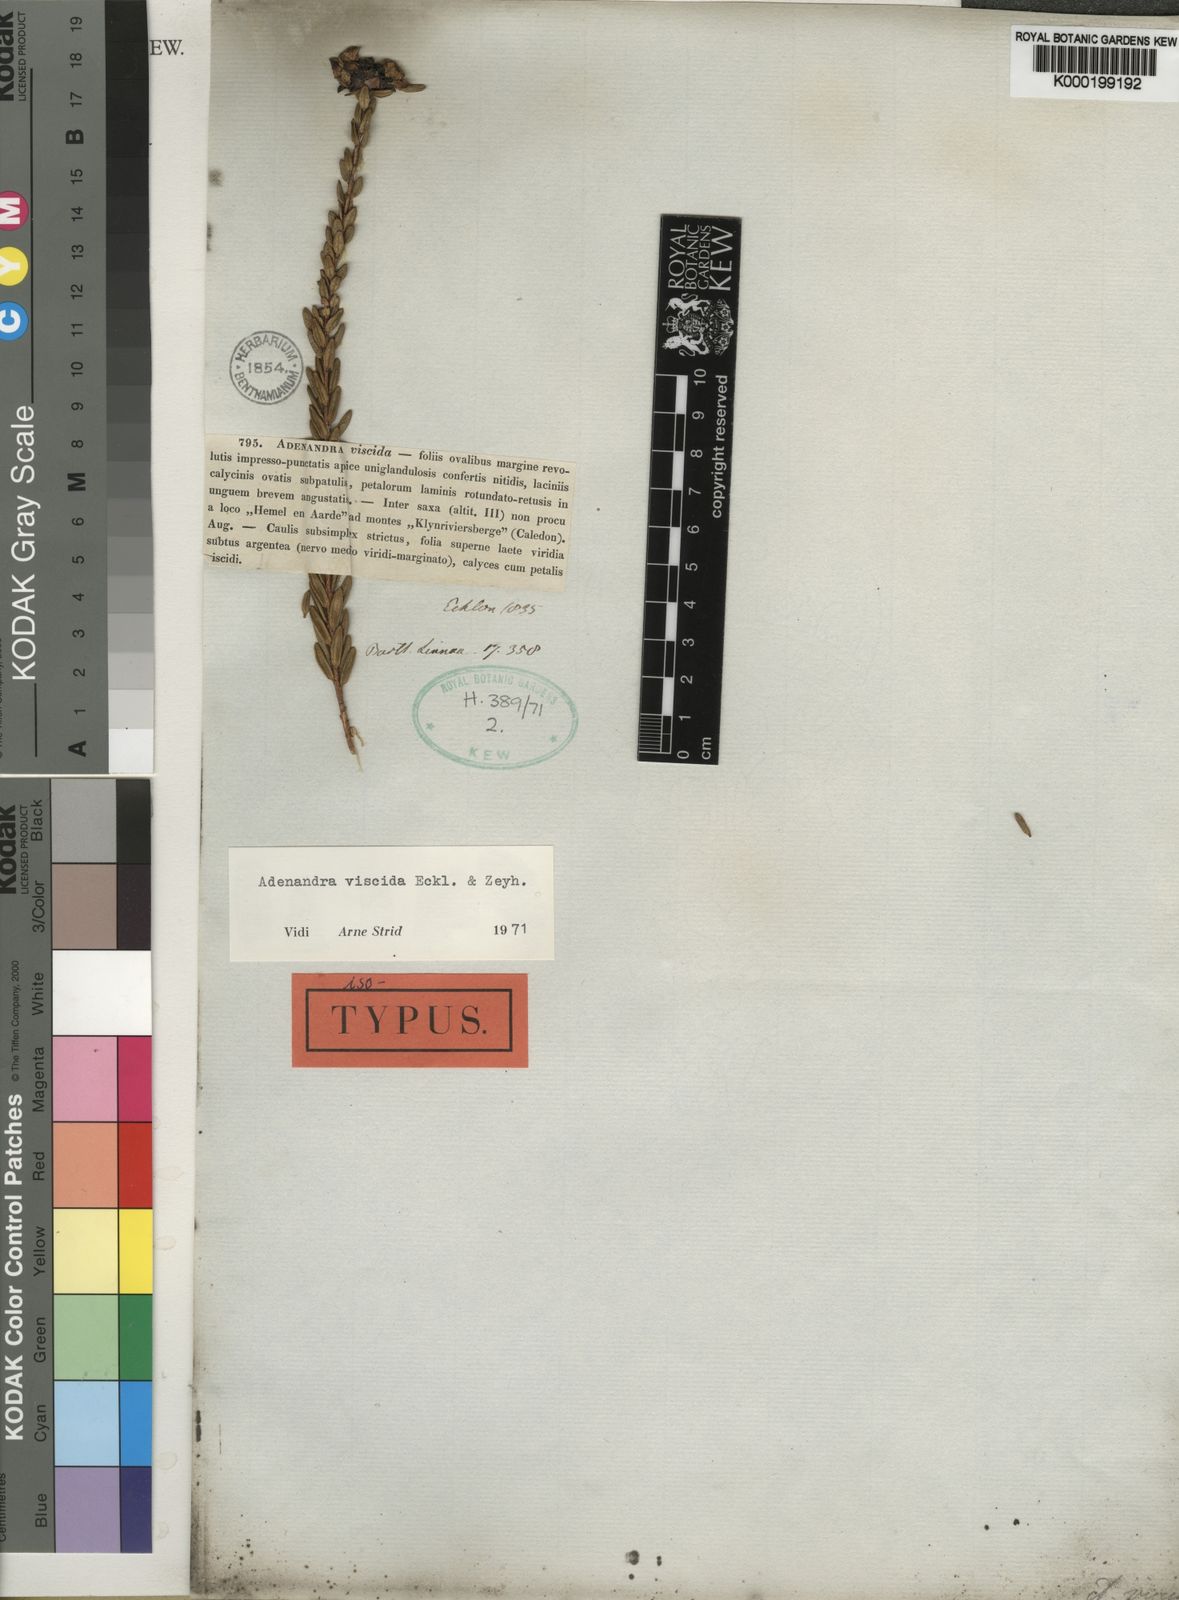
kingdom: Plantae
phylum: Tracheophyta
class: Magnoliopsida
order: Sapindales
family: Rutaceae
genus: Adenandra
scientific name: Adenandra viscida
